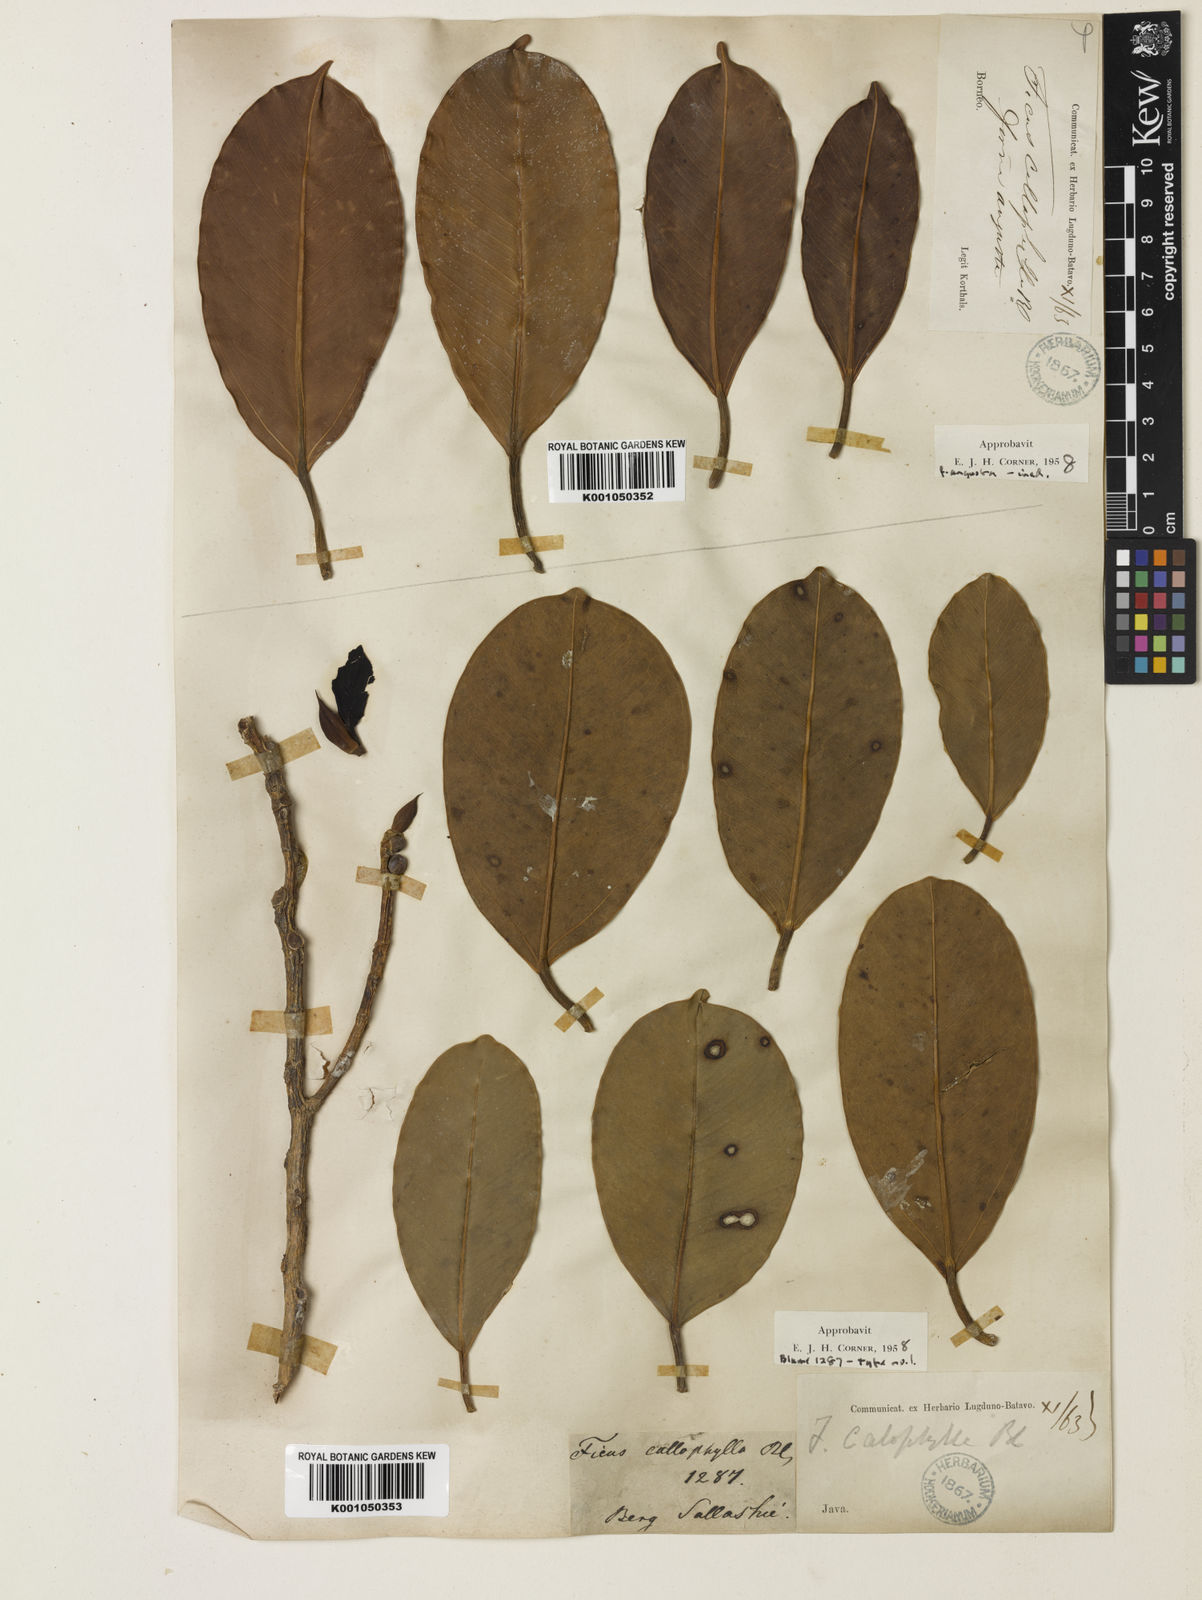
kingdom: Plantae
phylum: Tracheophyta
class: Magnoliopsida
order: Rosales
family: Moraceae
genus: Ficus
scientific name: Ficus callophylla
